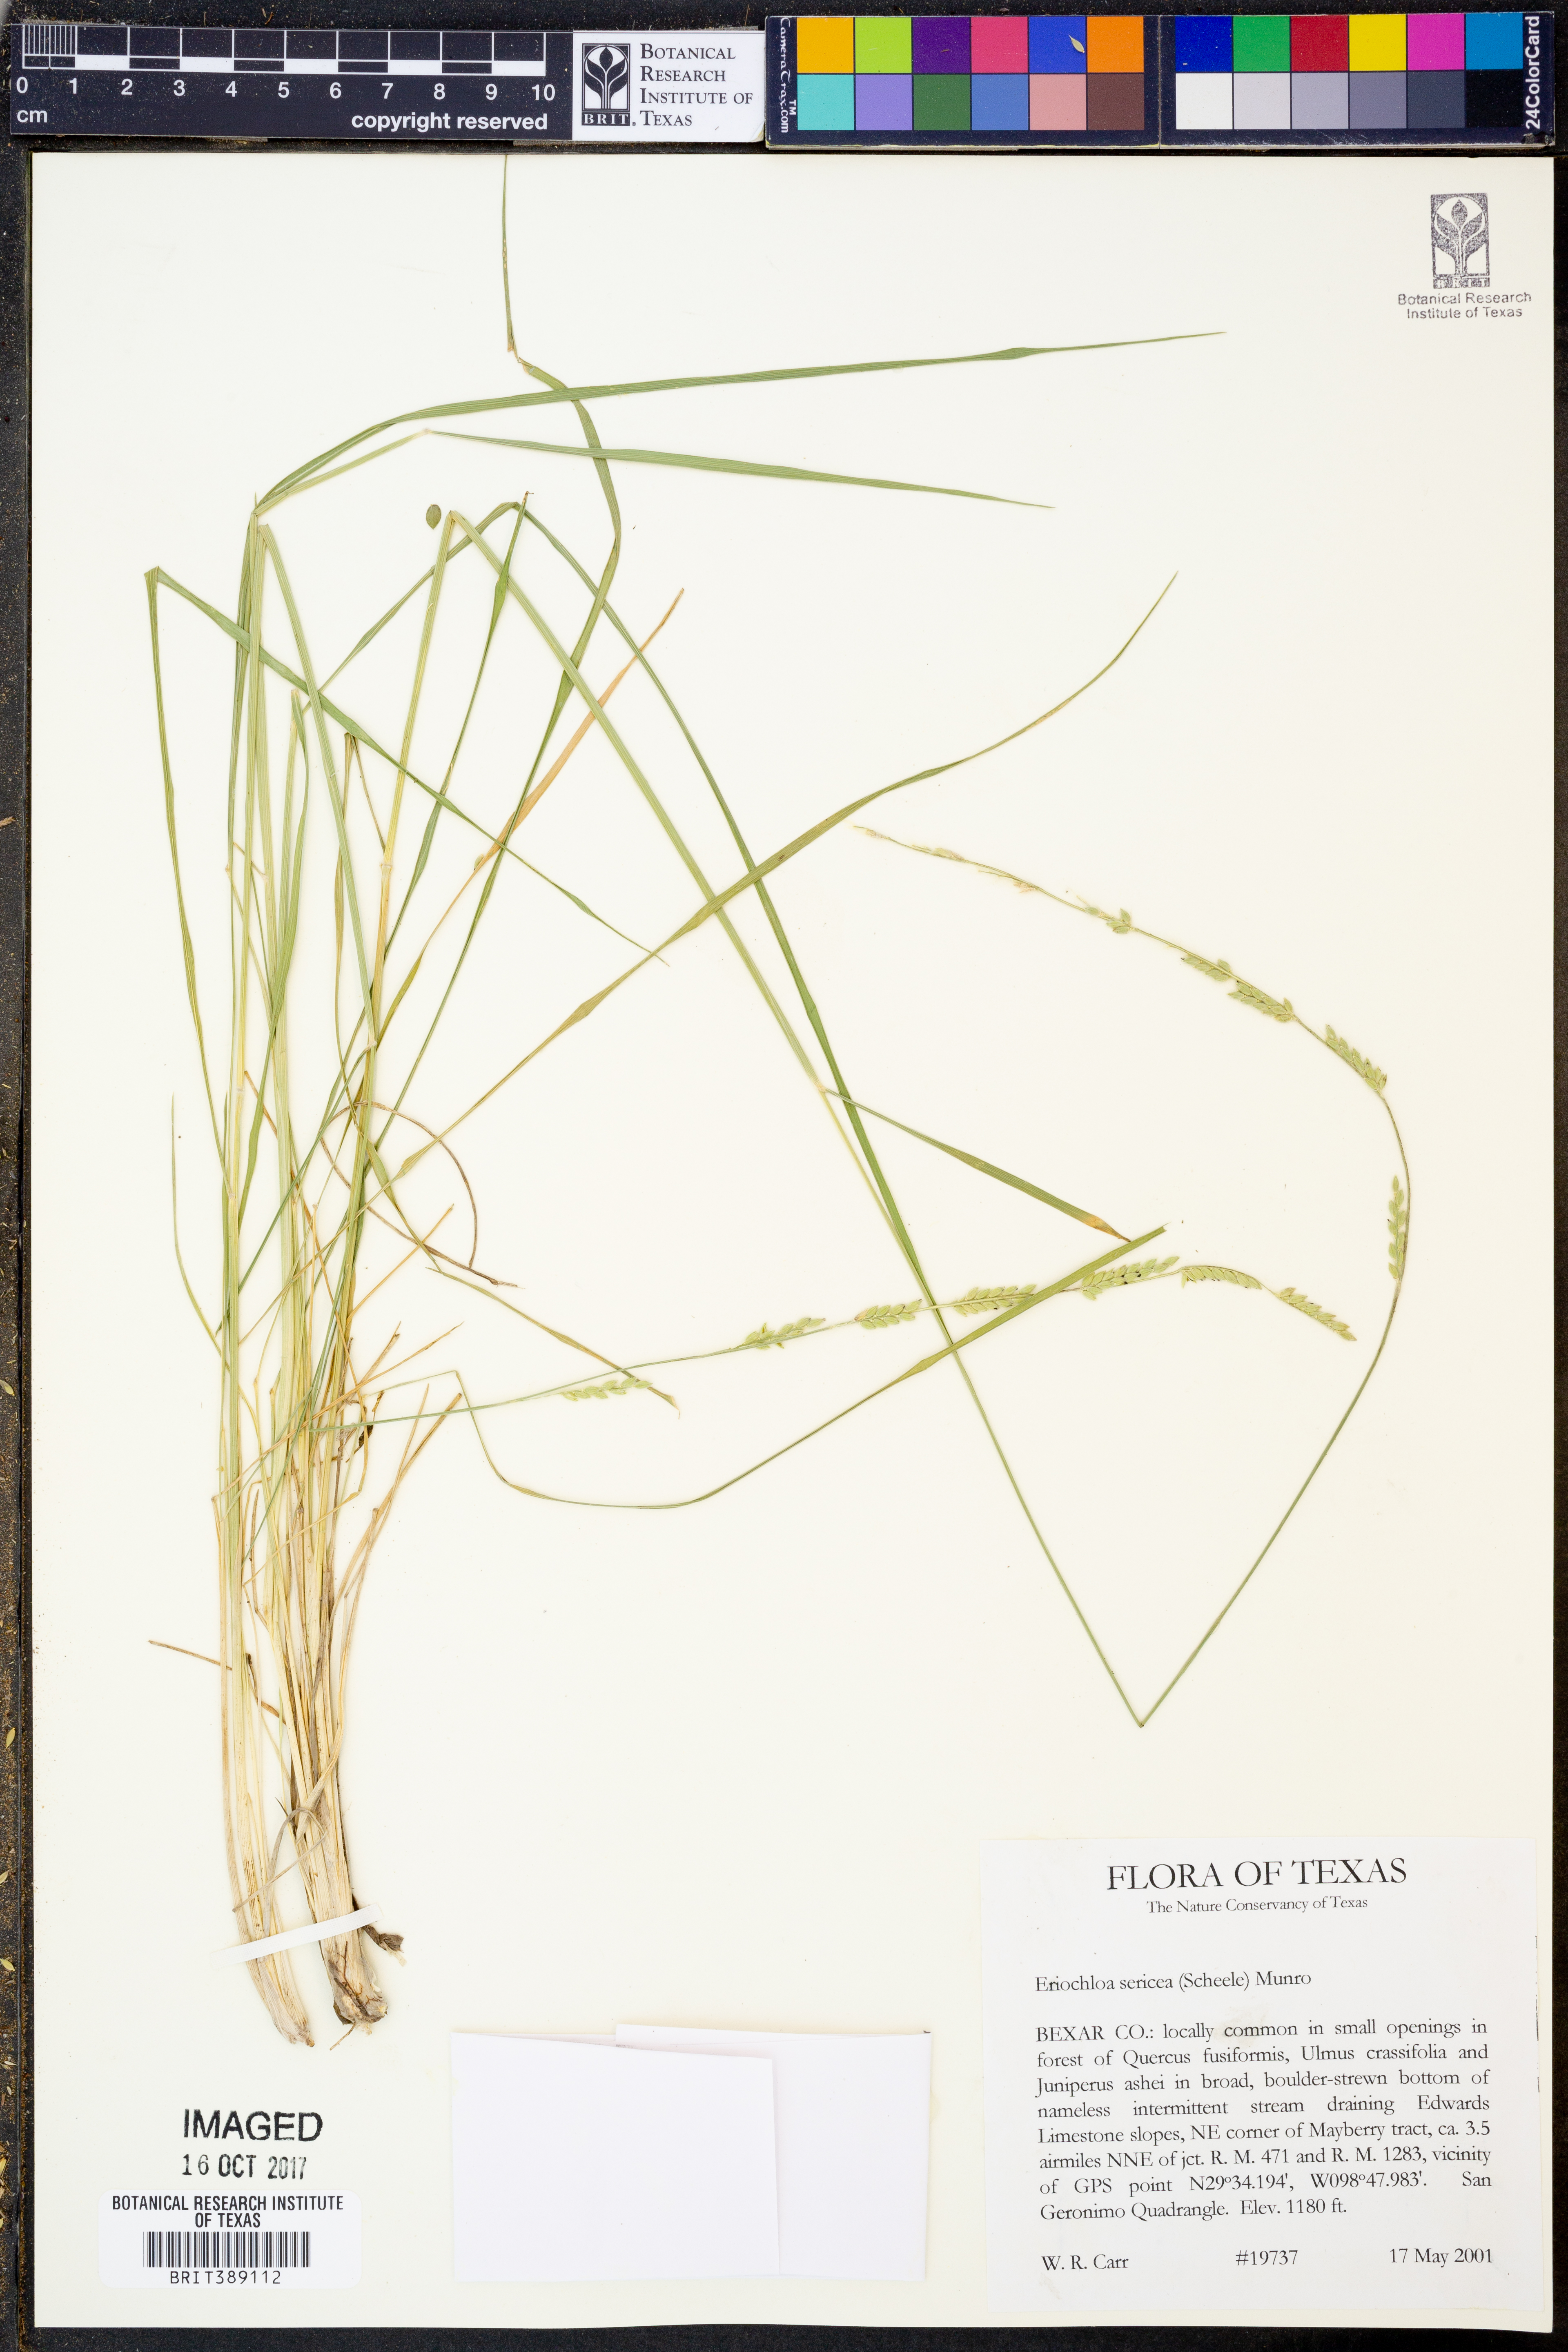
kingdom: Plantae
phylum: Tracheophyta
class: Liliopsida
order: Poales
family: Poaceae
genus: Eriochloa
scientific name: Eriochloa sericea
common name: Texas cup grass
